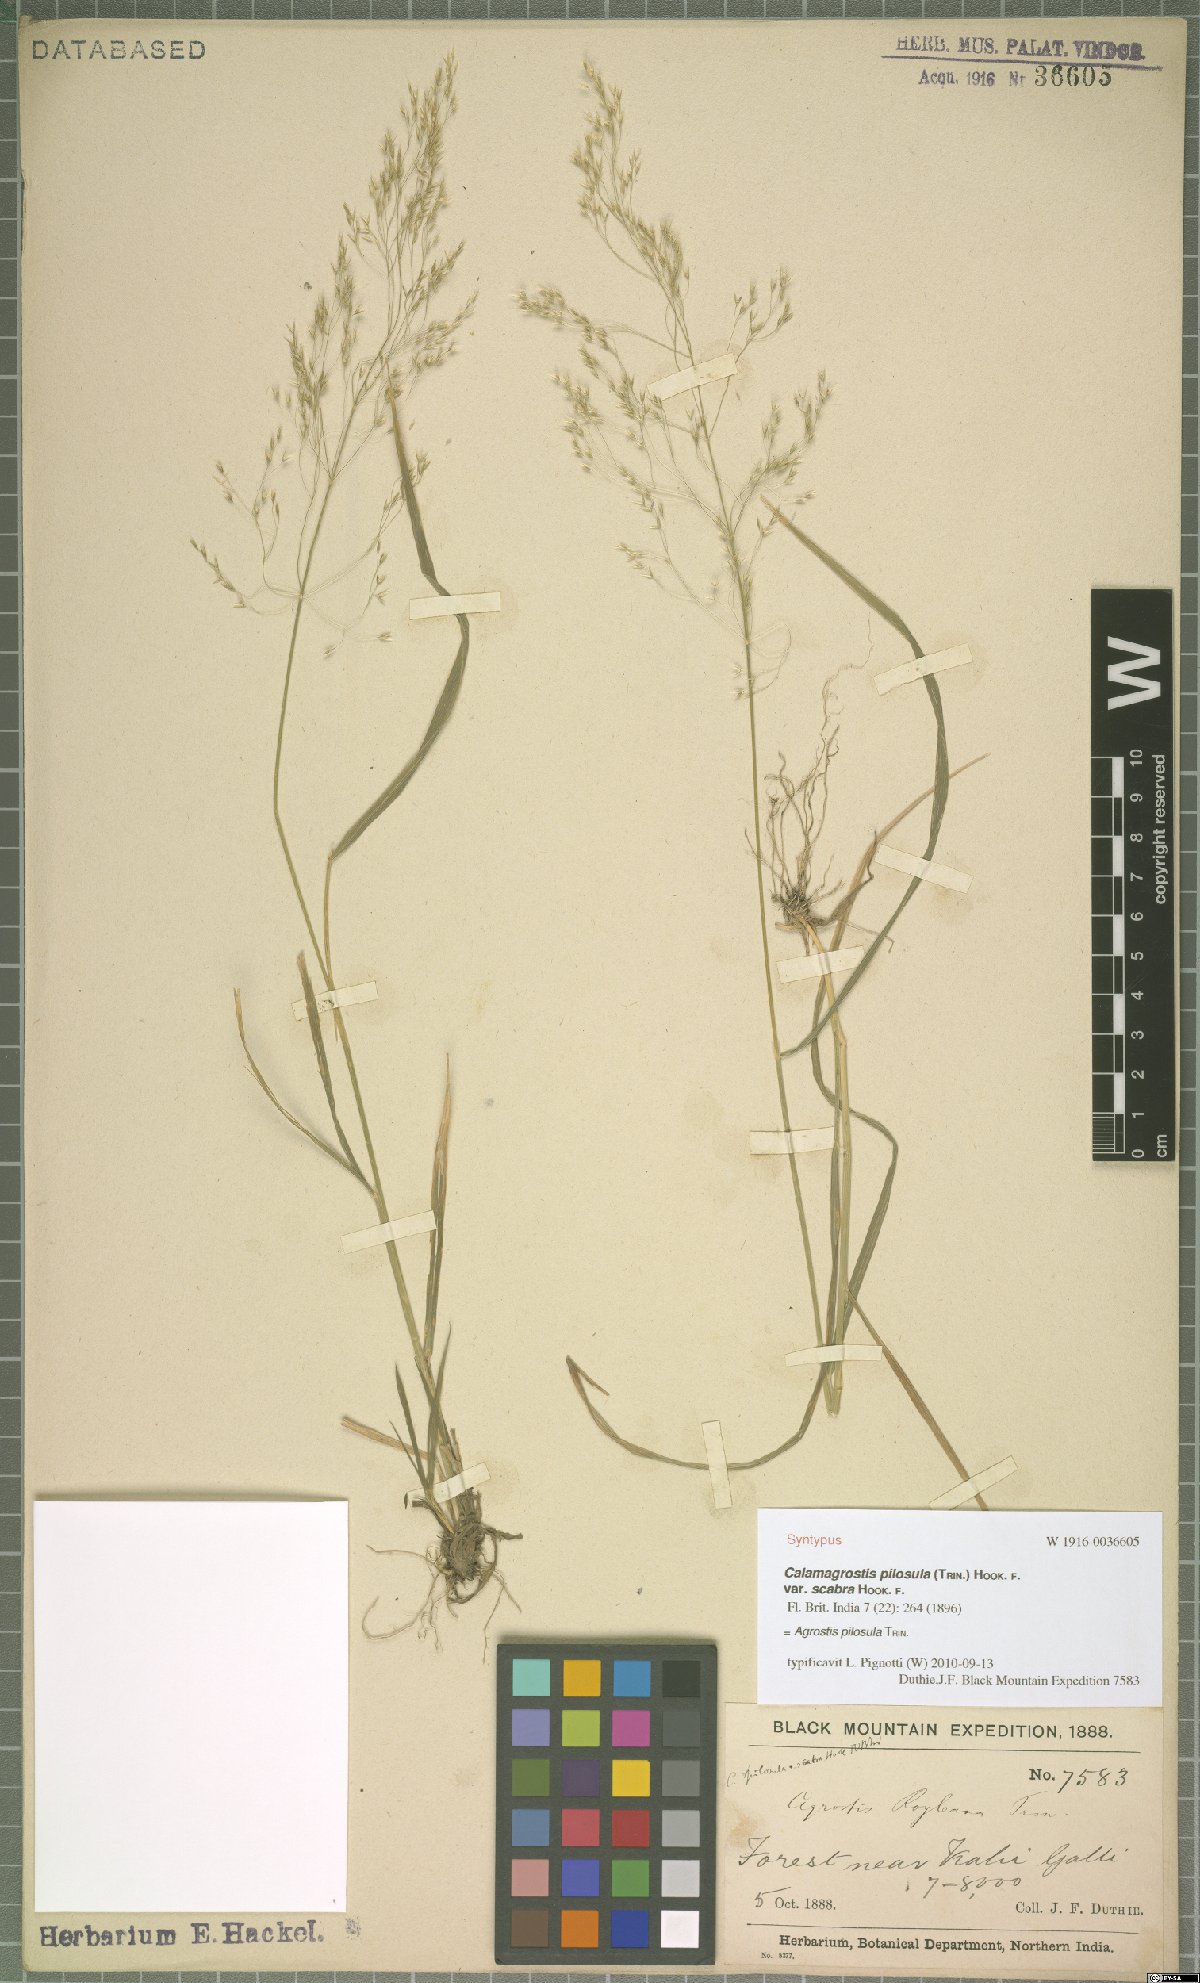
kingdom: Plantae
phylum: Tracheophyta
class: Liliopsida
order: Poales
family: Poaceae
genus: Agrostis
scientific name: Agrostis pilosula
